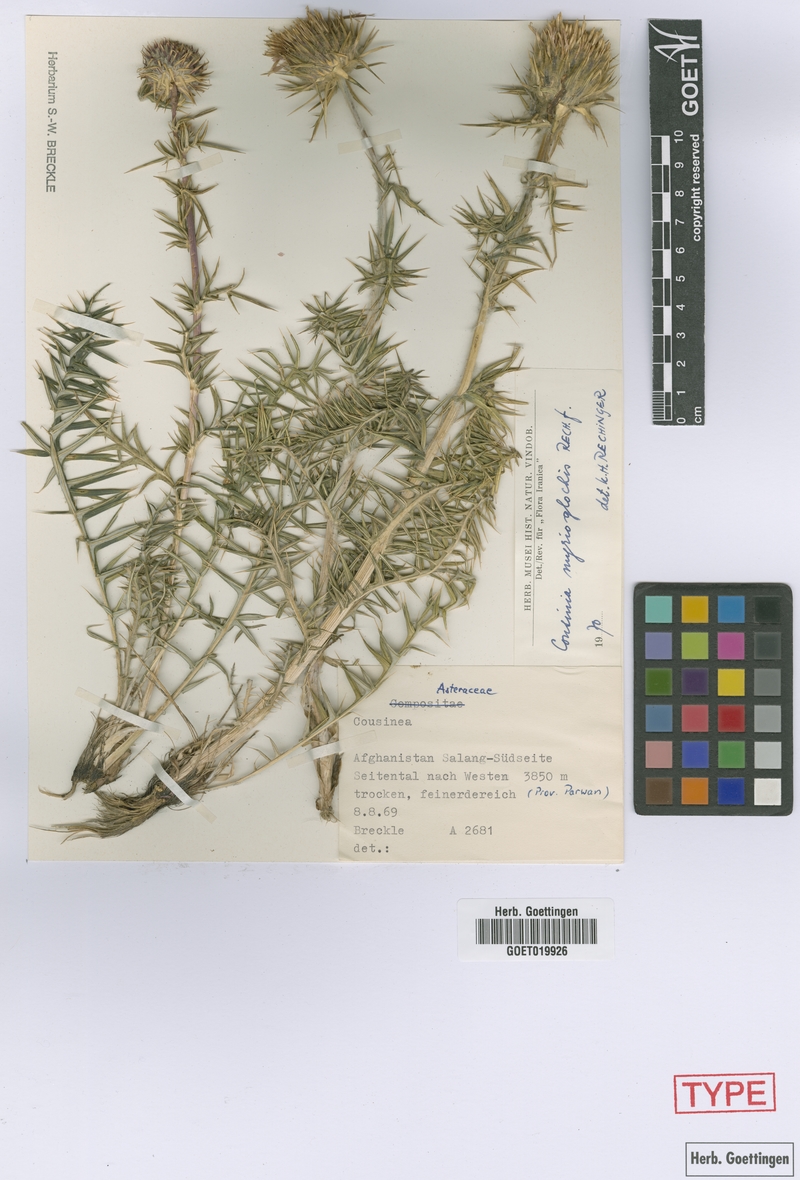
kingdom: Plantae
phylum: Tracheophyta
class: Magnoliopsida
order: Asterales
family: Asteraceae
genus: Cousinia
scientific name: Cousinia myrioglochis
